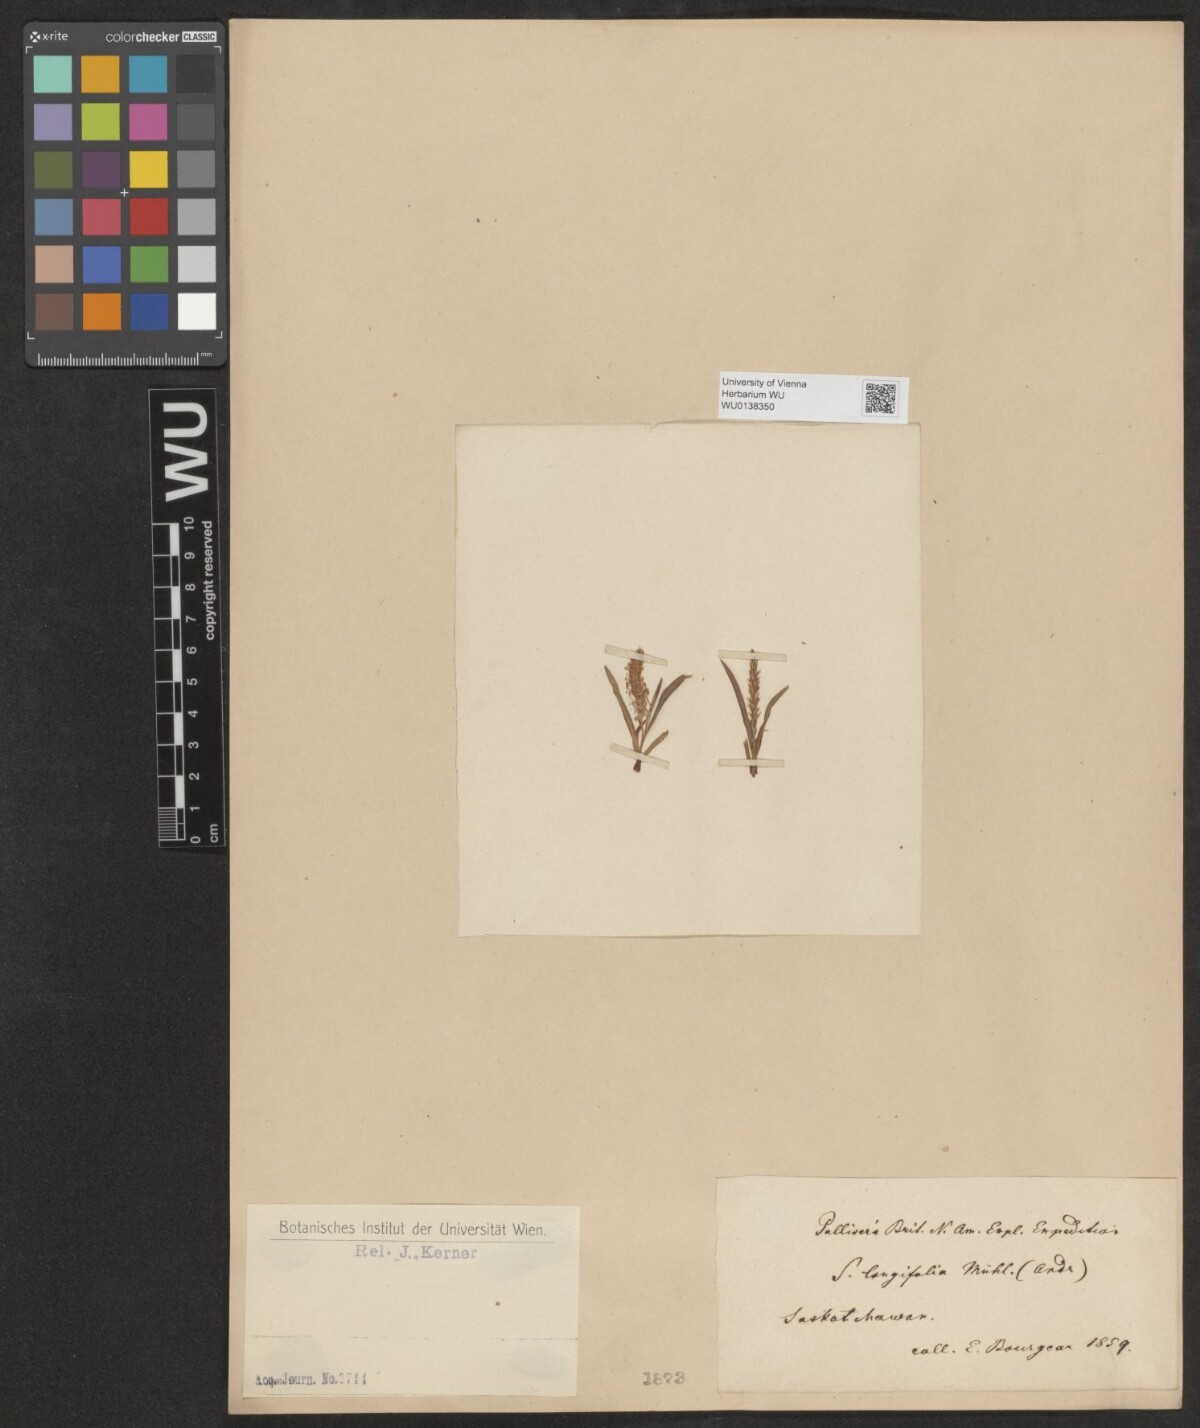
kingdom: Plantae
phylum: Tracheophyta
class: Magnoliopsida
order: Malpighiales
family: Salicaceae
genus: Salix
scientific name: Salix interior
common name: Sandbar willow
